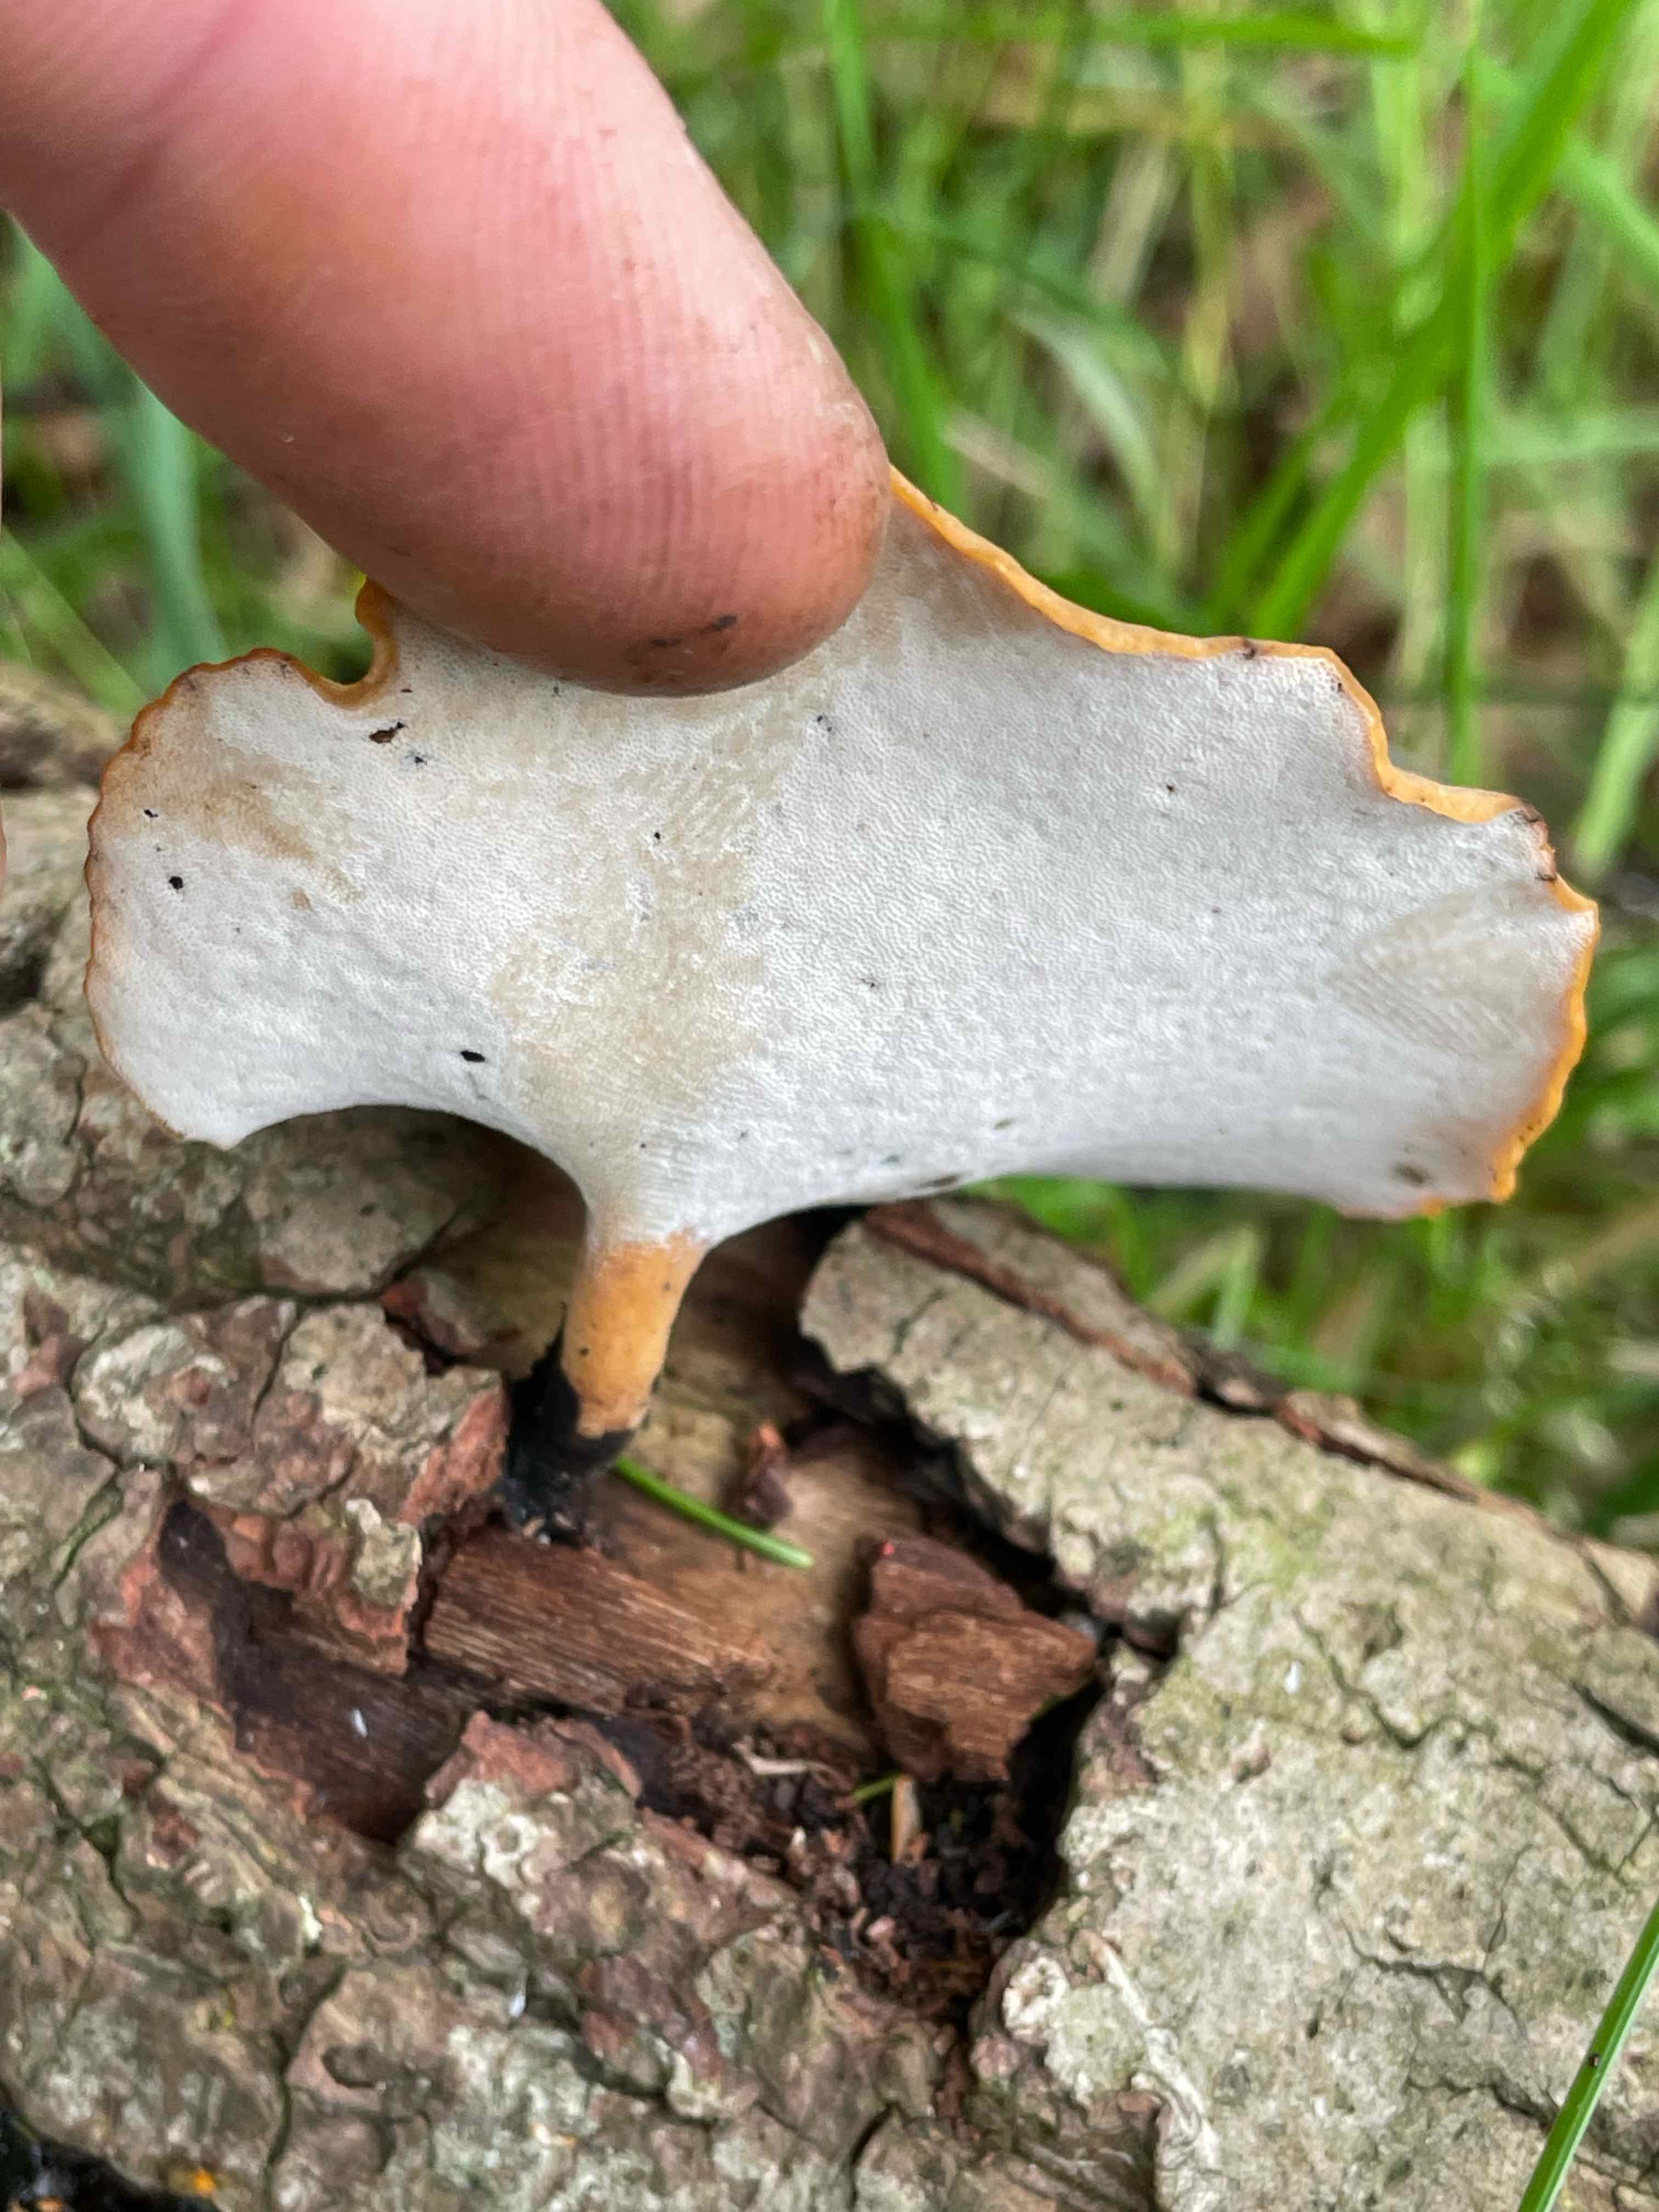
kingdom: Fungi
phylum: Basidiomycota
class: Agaricomycetes
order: Polyporales
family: Polyporaceae
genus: Cerioporus
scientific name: Cerioporus varius
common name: foranderlig stilkporesvamp
